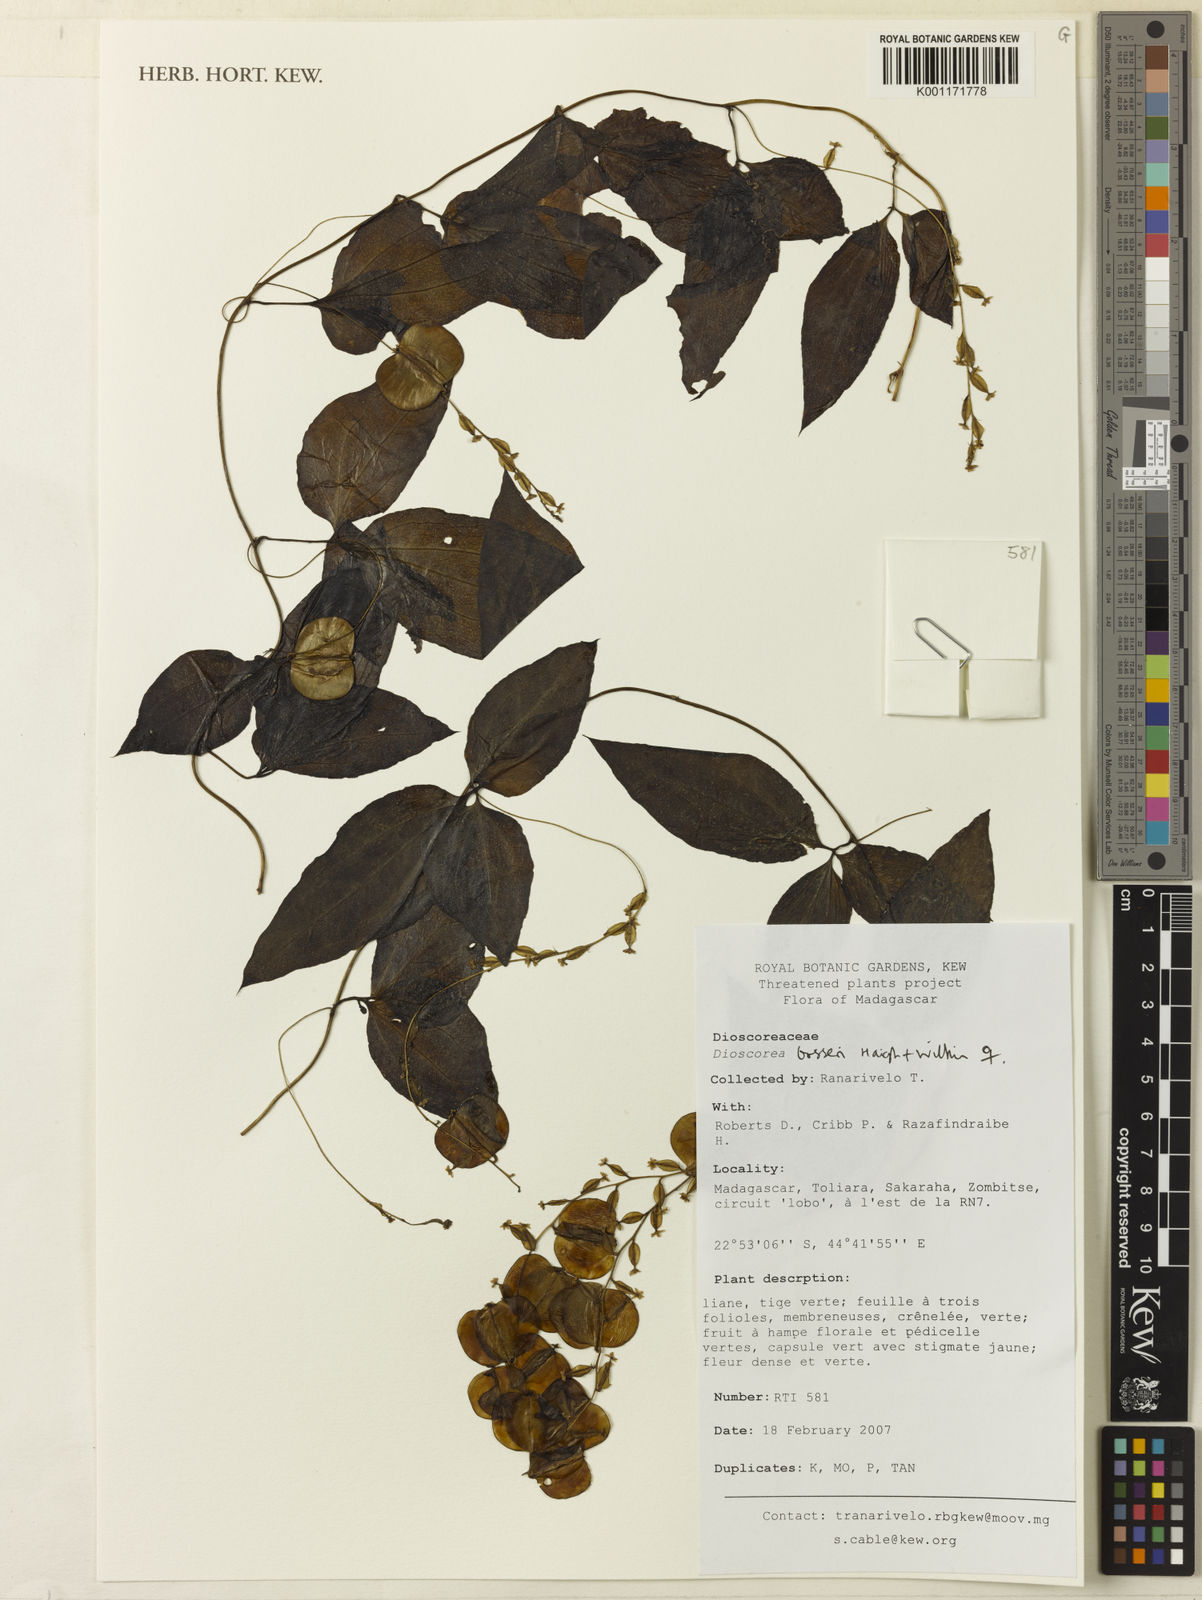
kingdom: Plantae
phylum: Tracheophyta
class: Liliopsida
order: Dioscoreales
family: Dioscoreaceae
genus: Dioscorea
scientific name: Dioscorea bosseri
